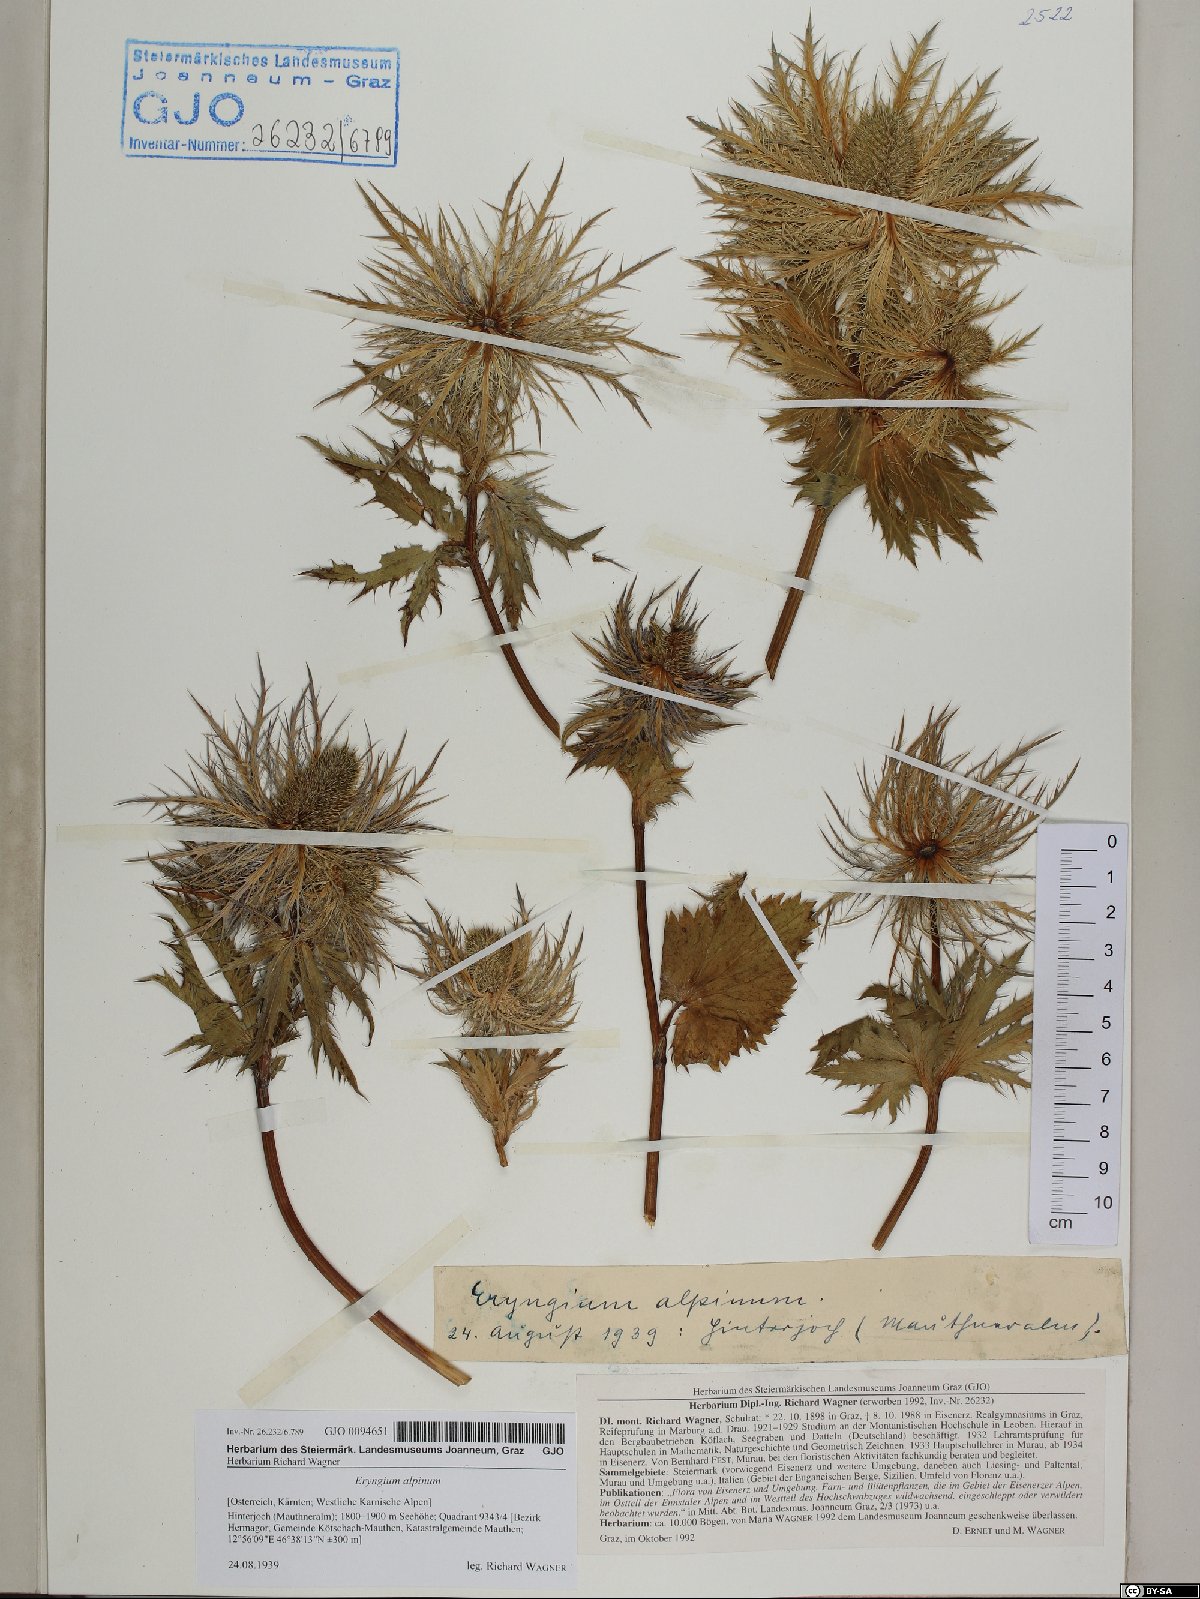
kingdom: Plantae
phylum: Tracheophyta
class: Magnoliopsida
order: Apiales
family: Apiaceae
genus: Eryngium
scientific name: Eryngium alpinum
